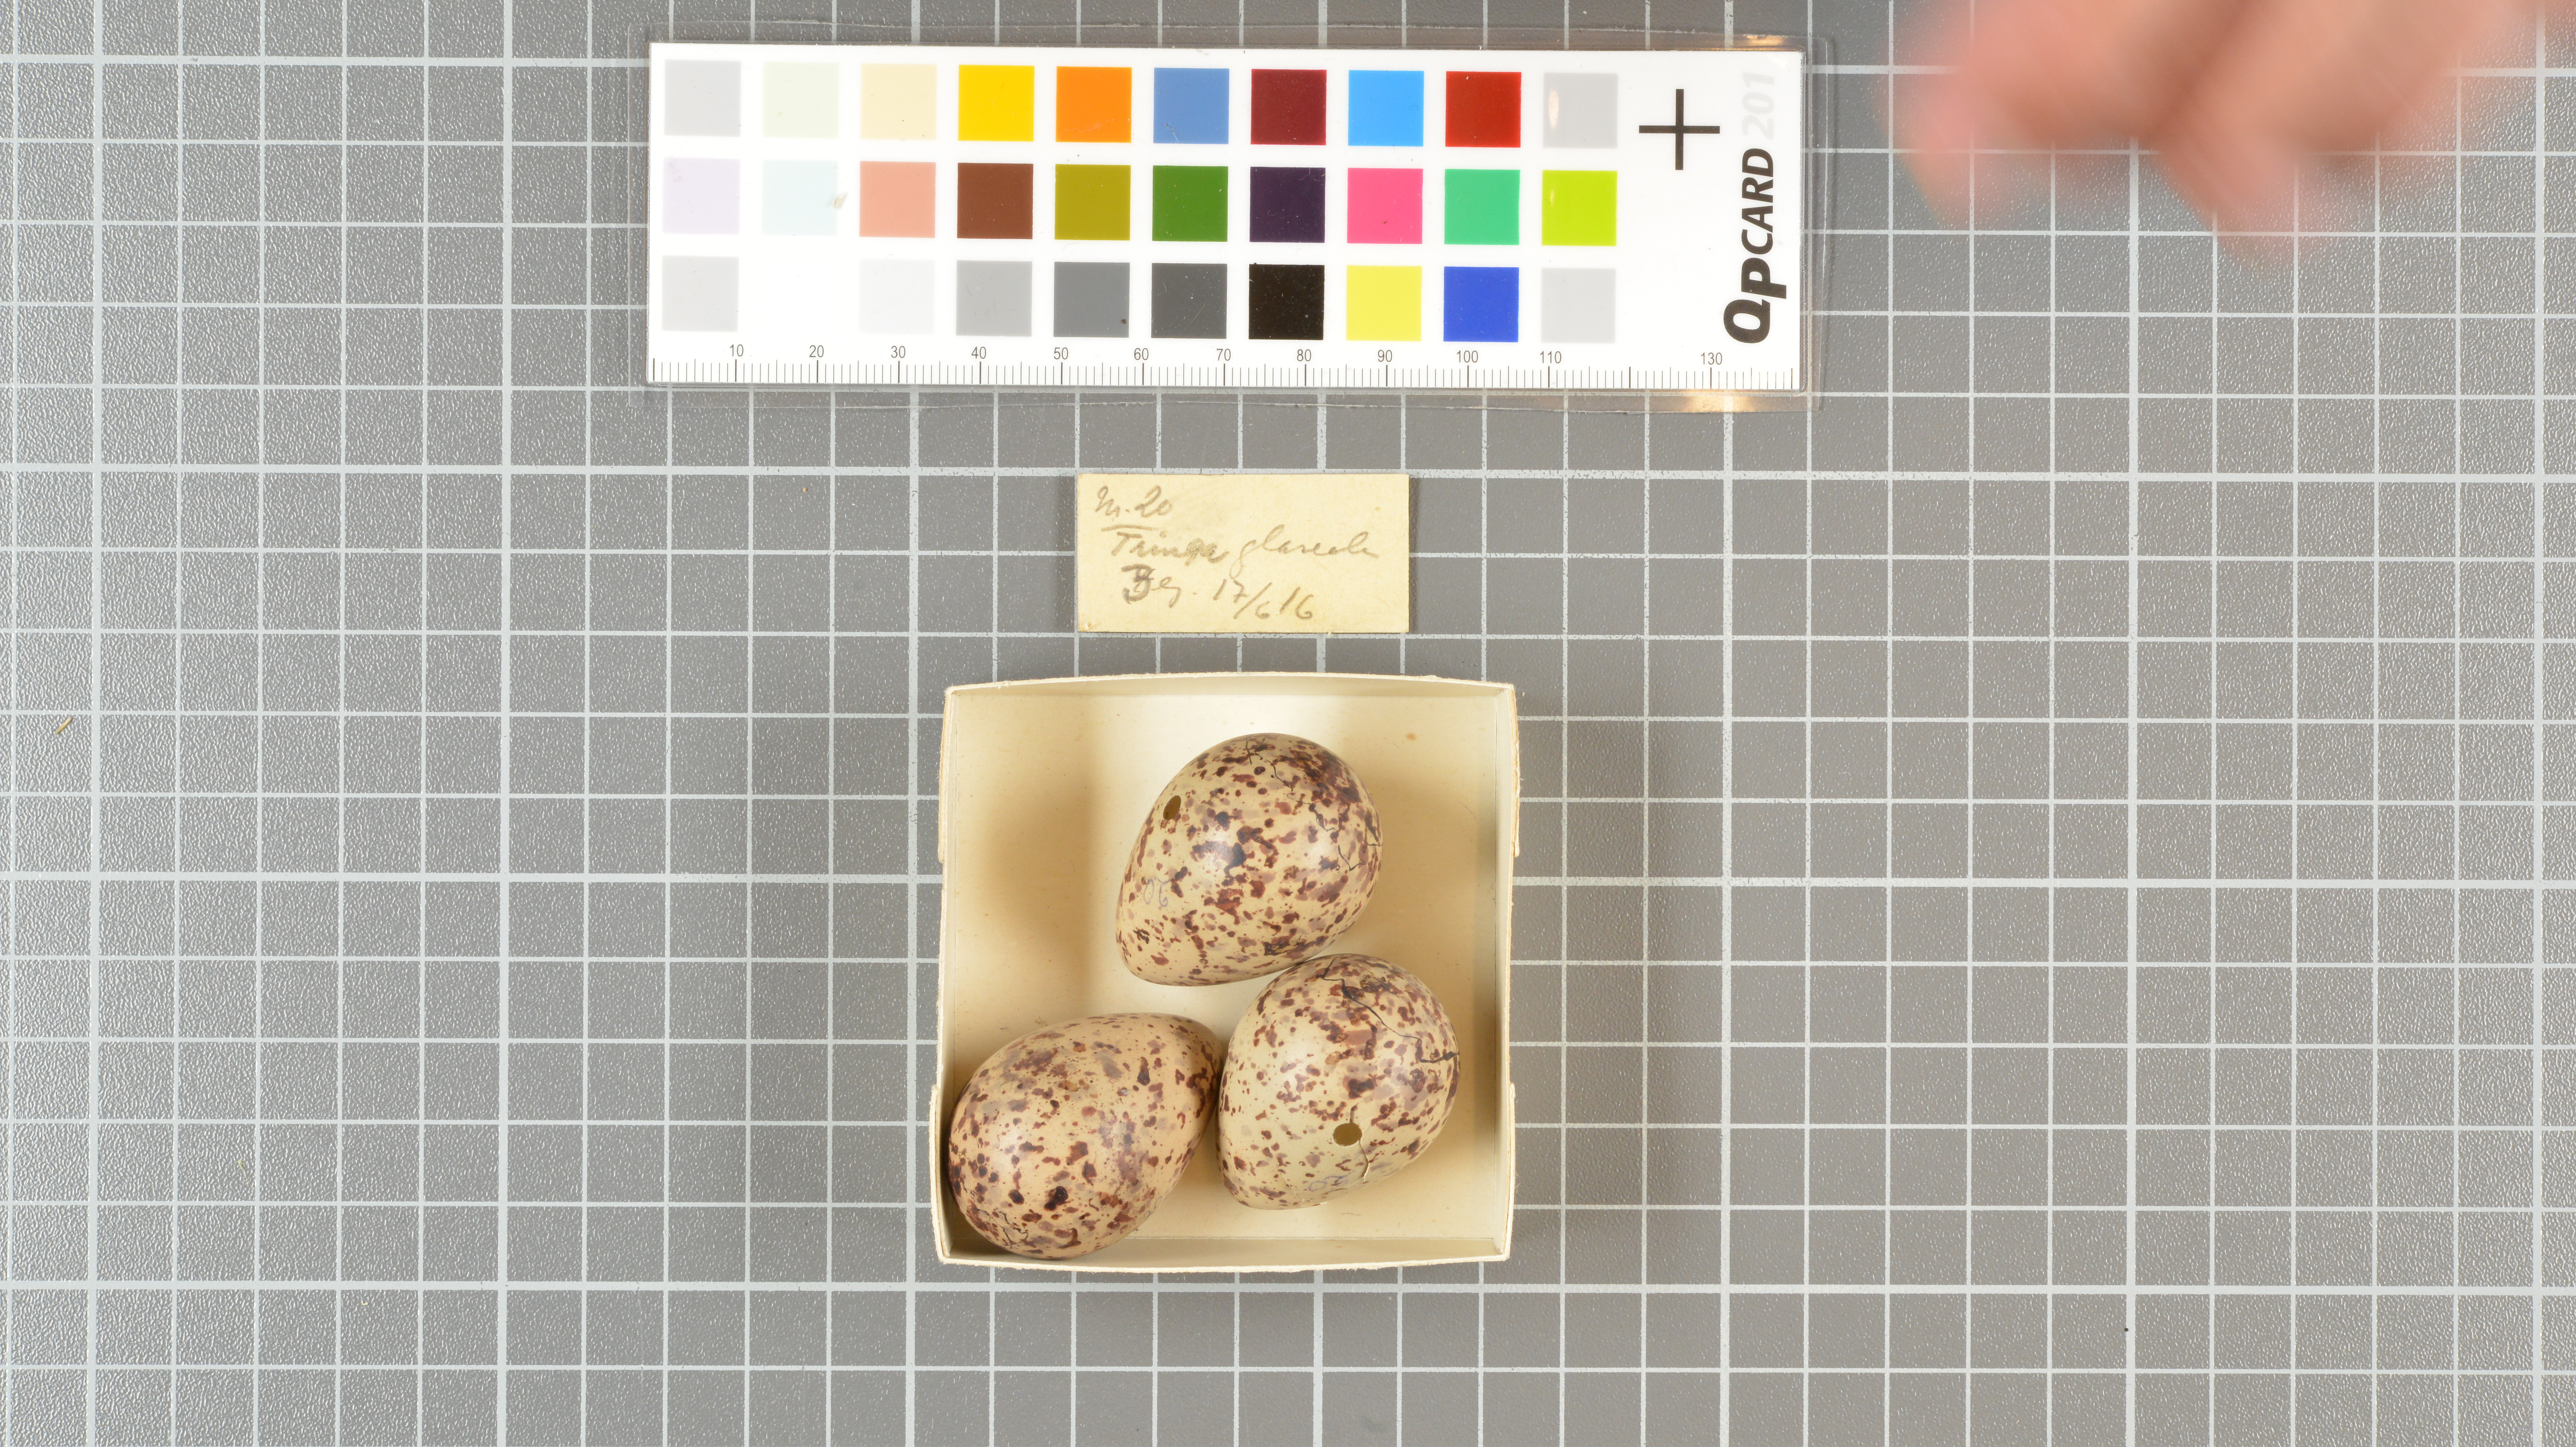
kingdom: Animalia
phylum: Chordata
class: Aves
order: Charadriiformes
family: Scolopacidae
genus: Tringa
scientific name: Tringa glareola
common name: Wood sandpiper
